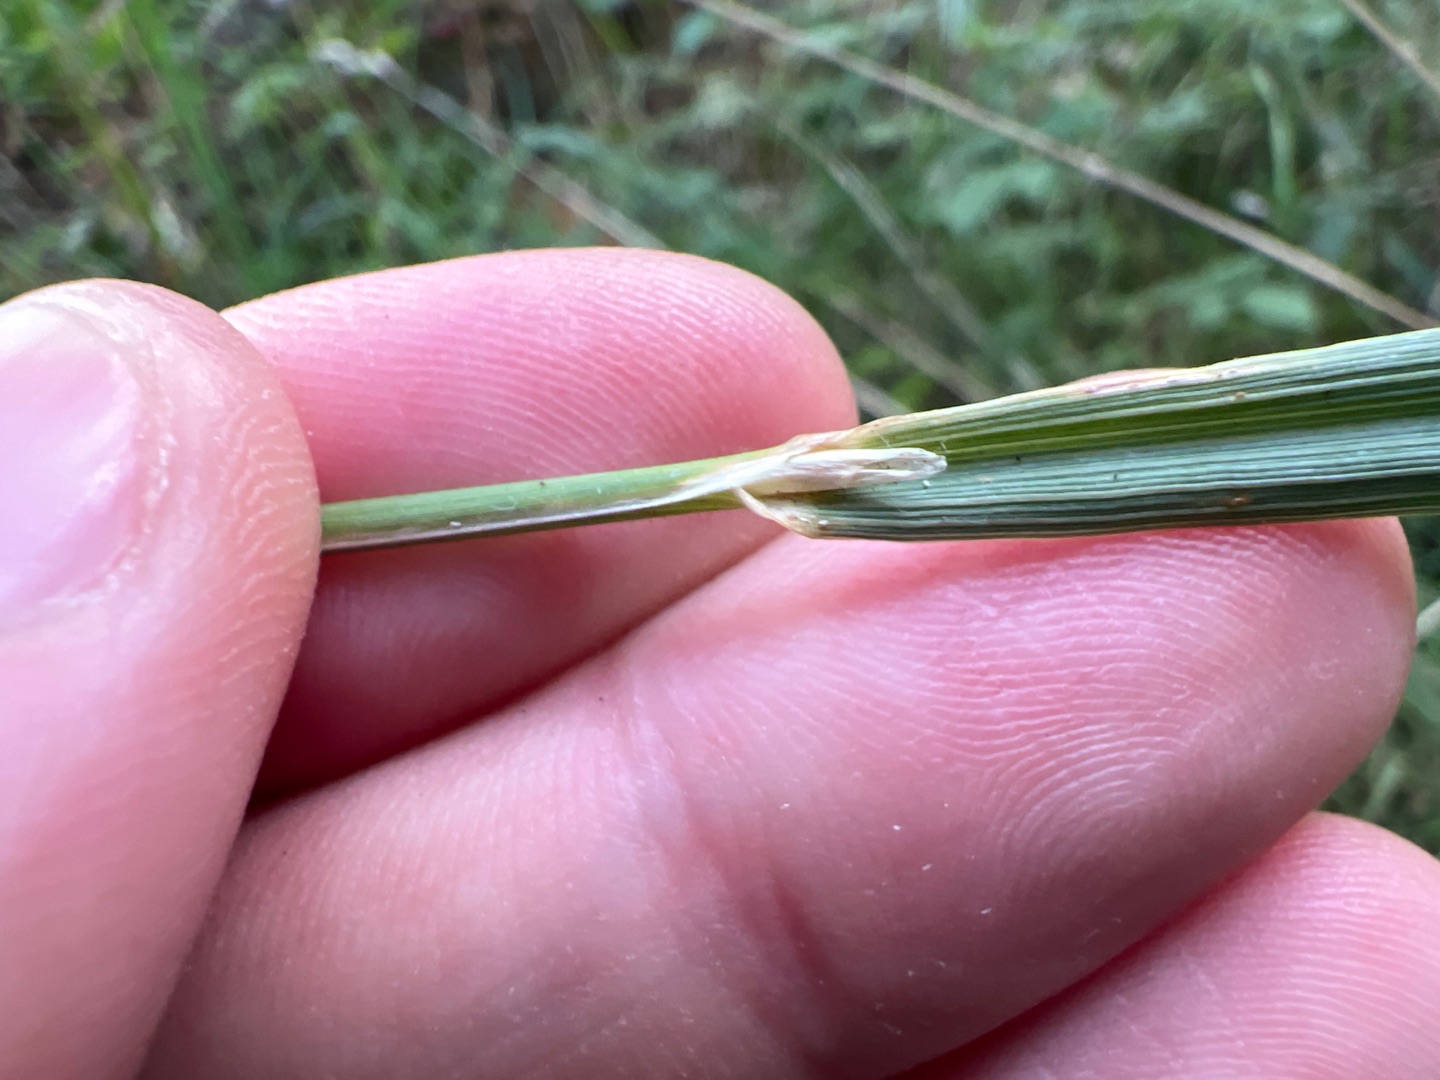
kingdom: Plantae
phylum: Tracheophyta
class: Liliopsida
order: Poales
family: Poaceae
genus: Calamagrostis
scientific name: Calamagrostis epigejos
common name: Bjerg-rørhvene
